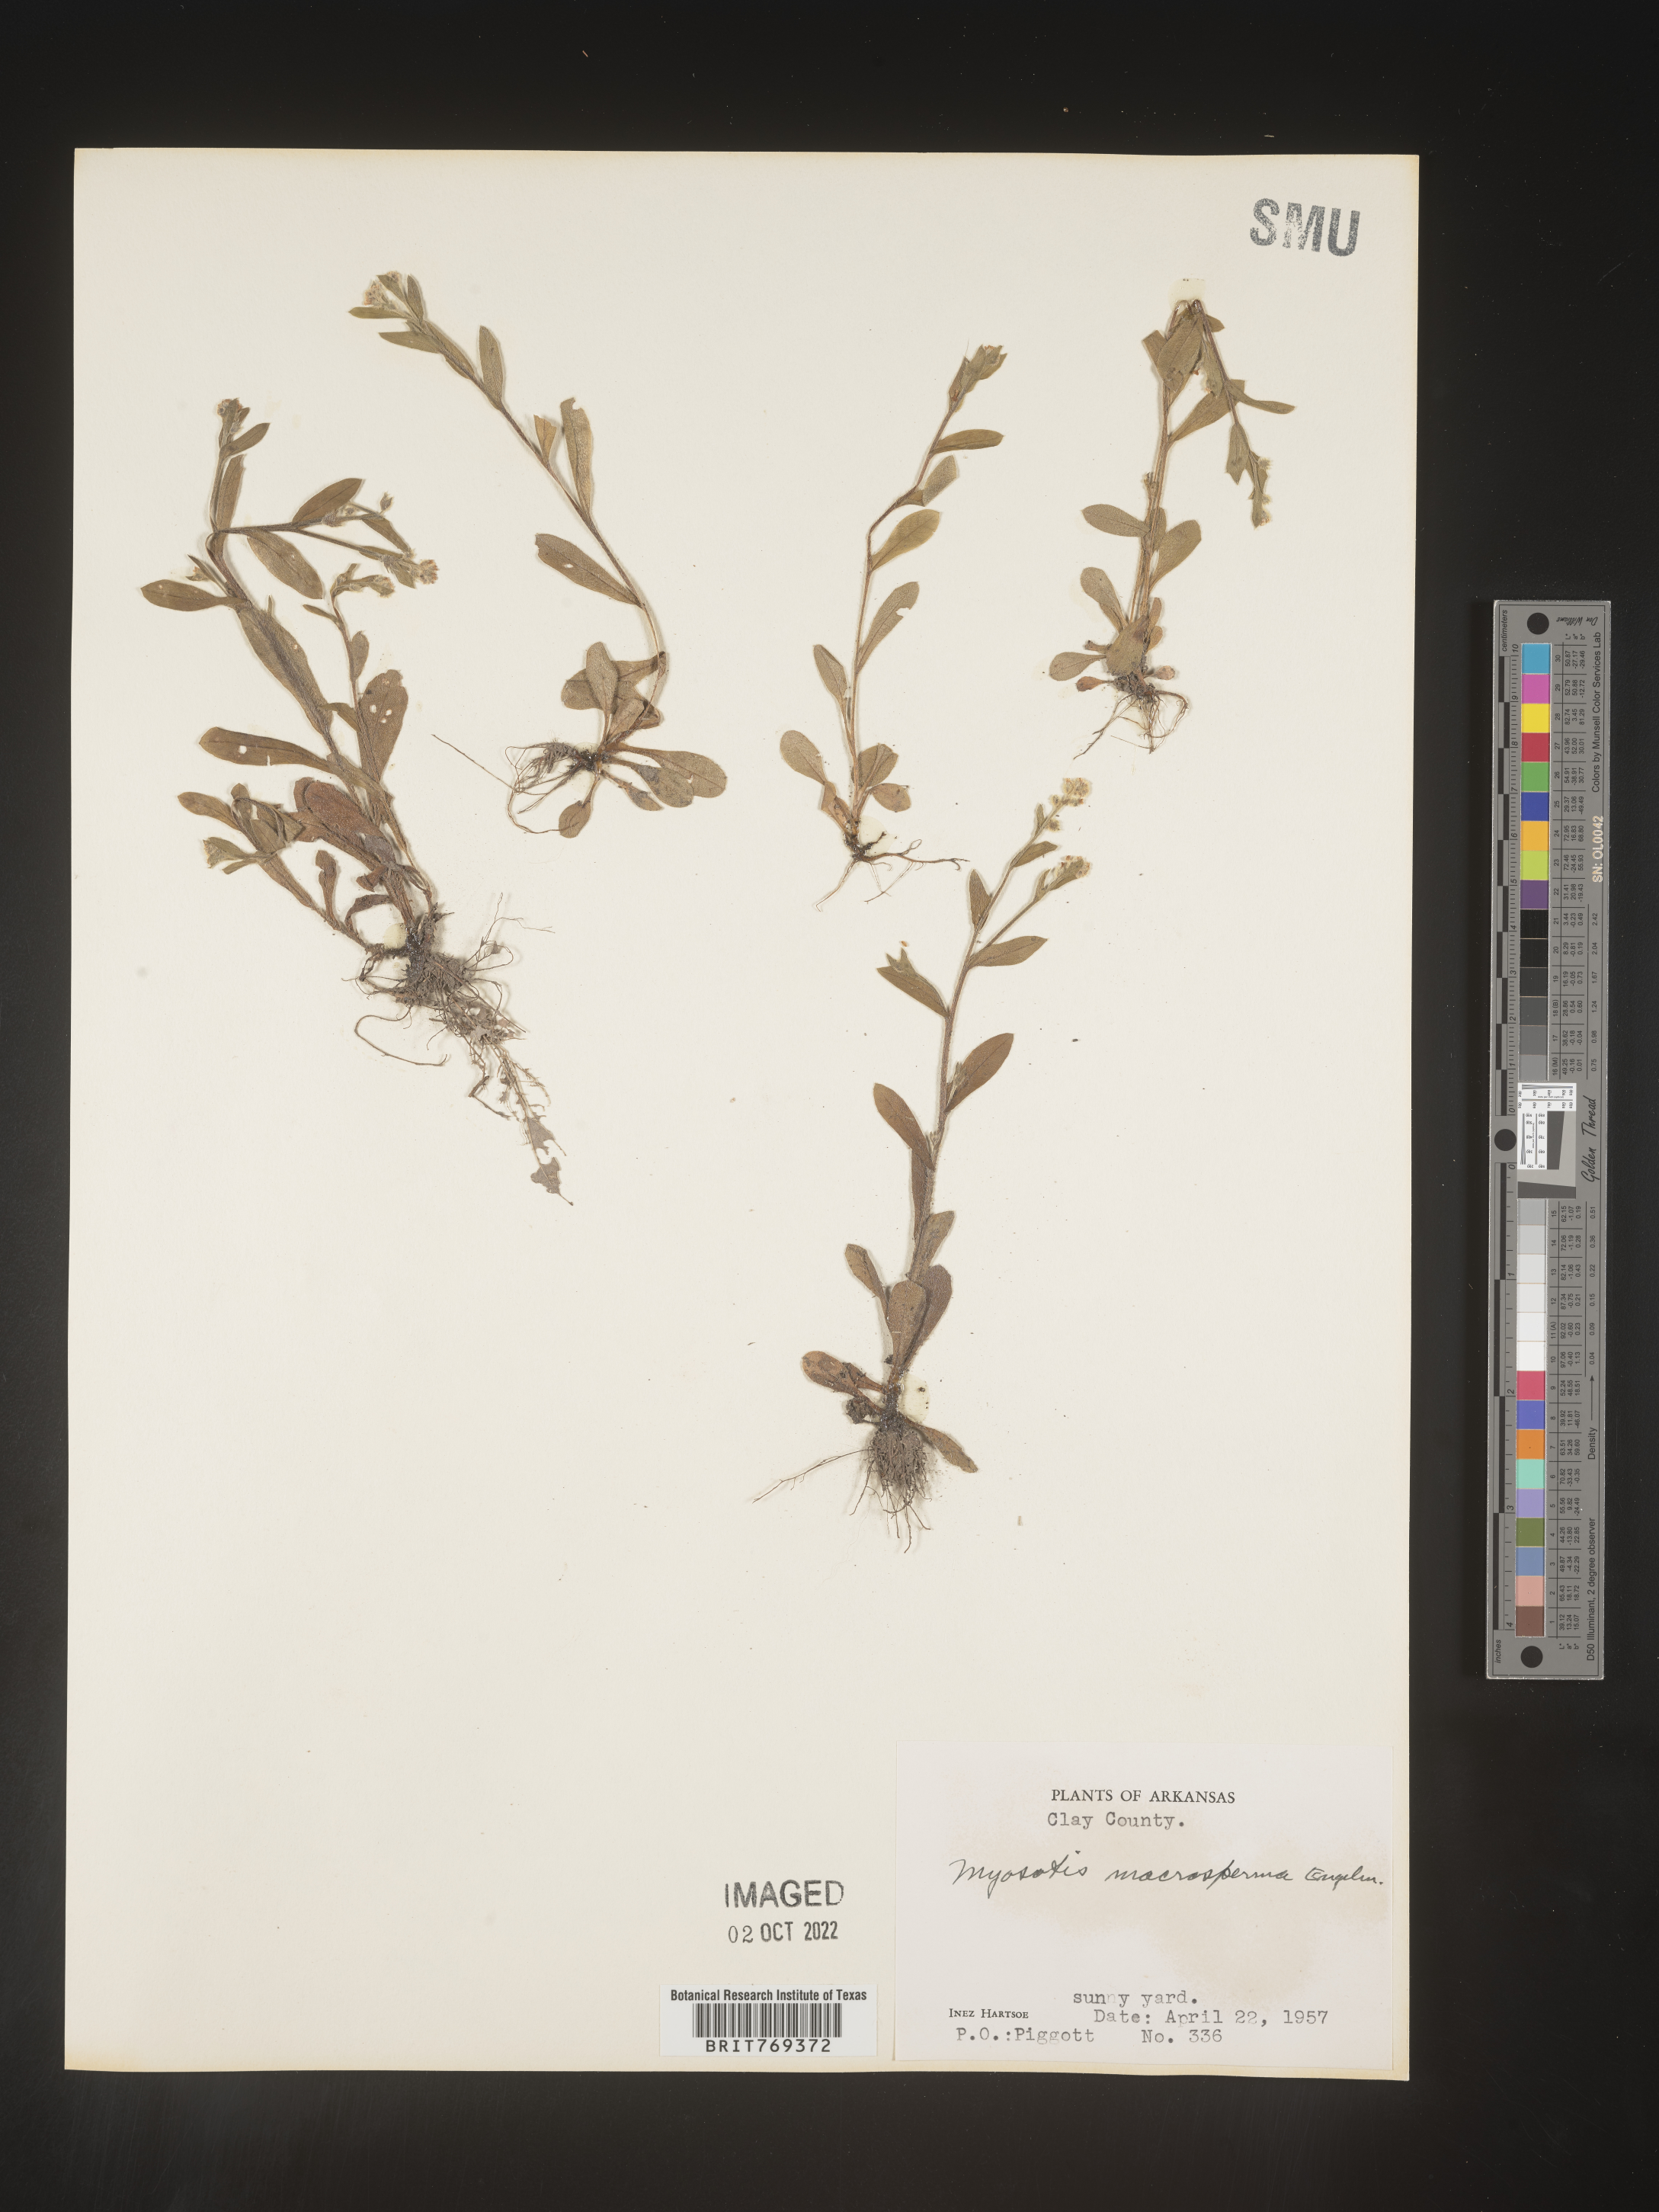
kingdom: Plantae
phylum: Tracheophyta
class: Magnoliopsida
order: Boraginales
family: Boraginaceae
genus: Myosotis
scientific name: Myosotis macrosperma
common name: Large-seed forget-me-not
